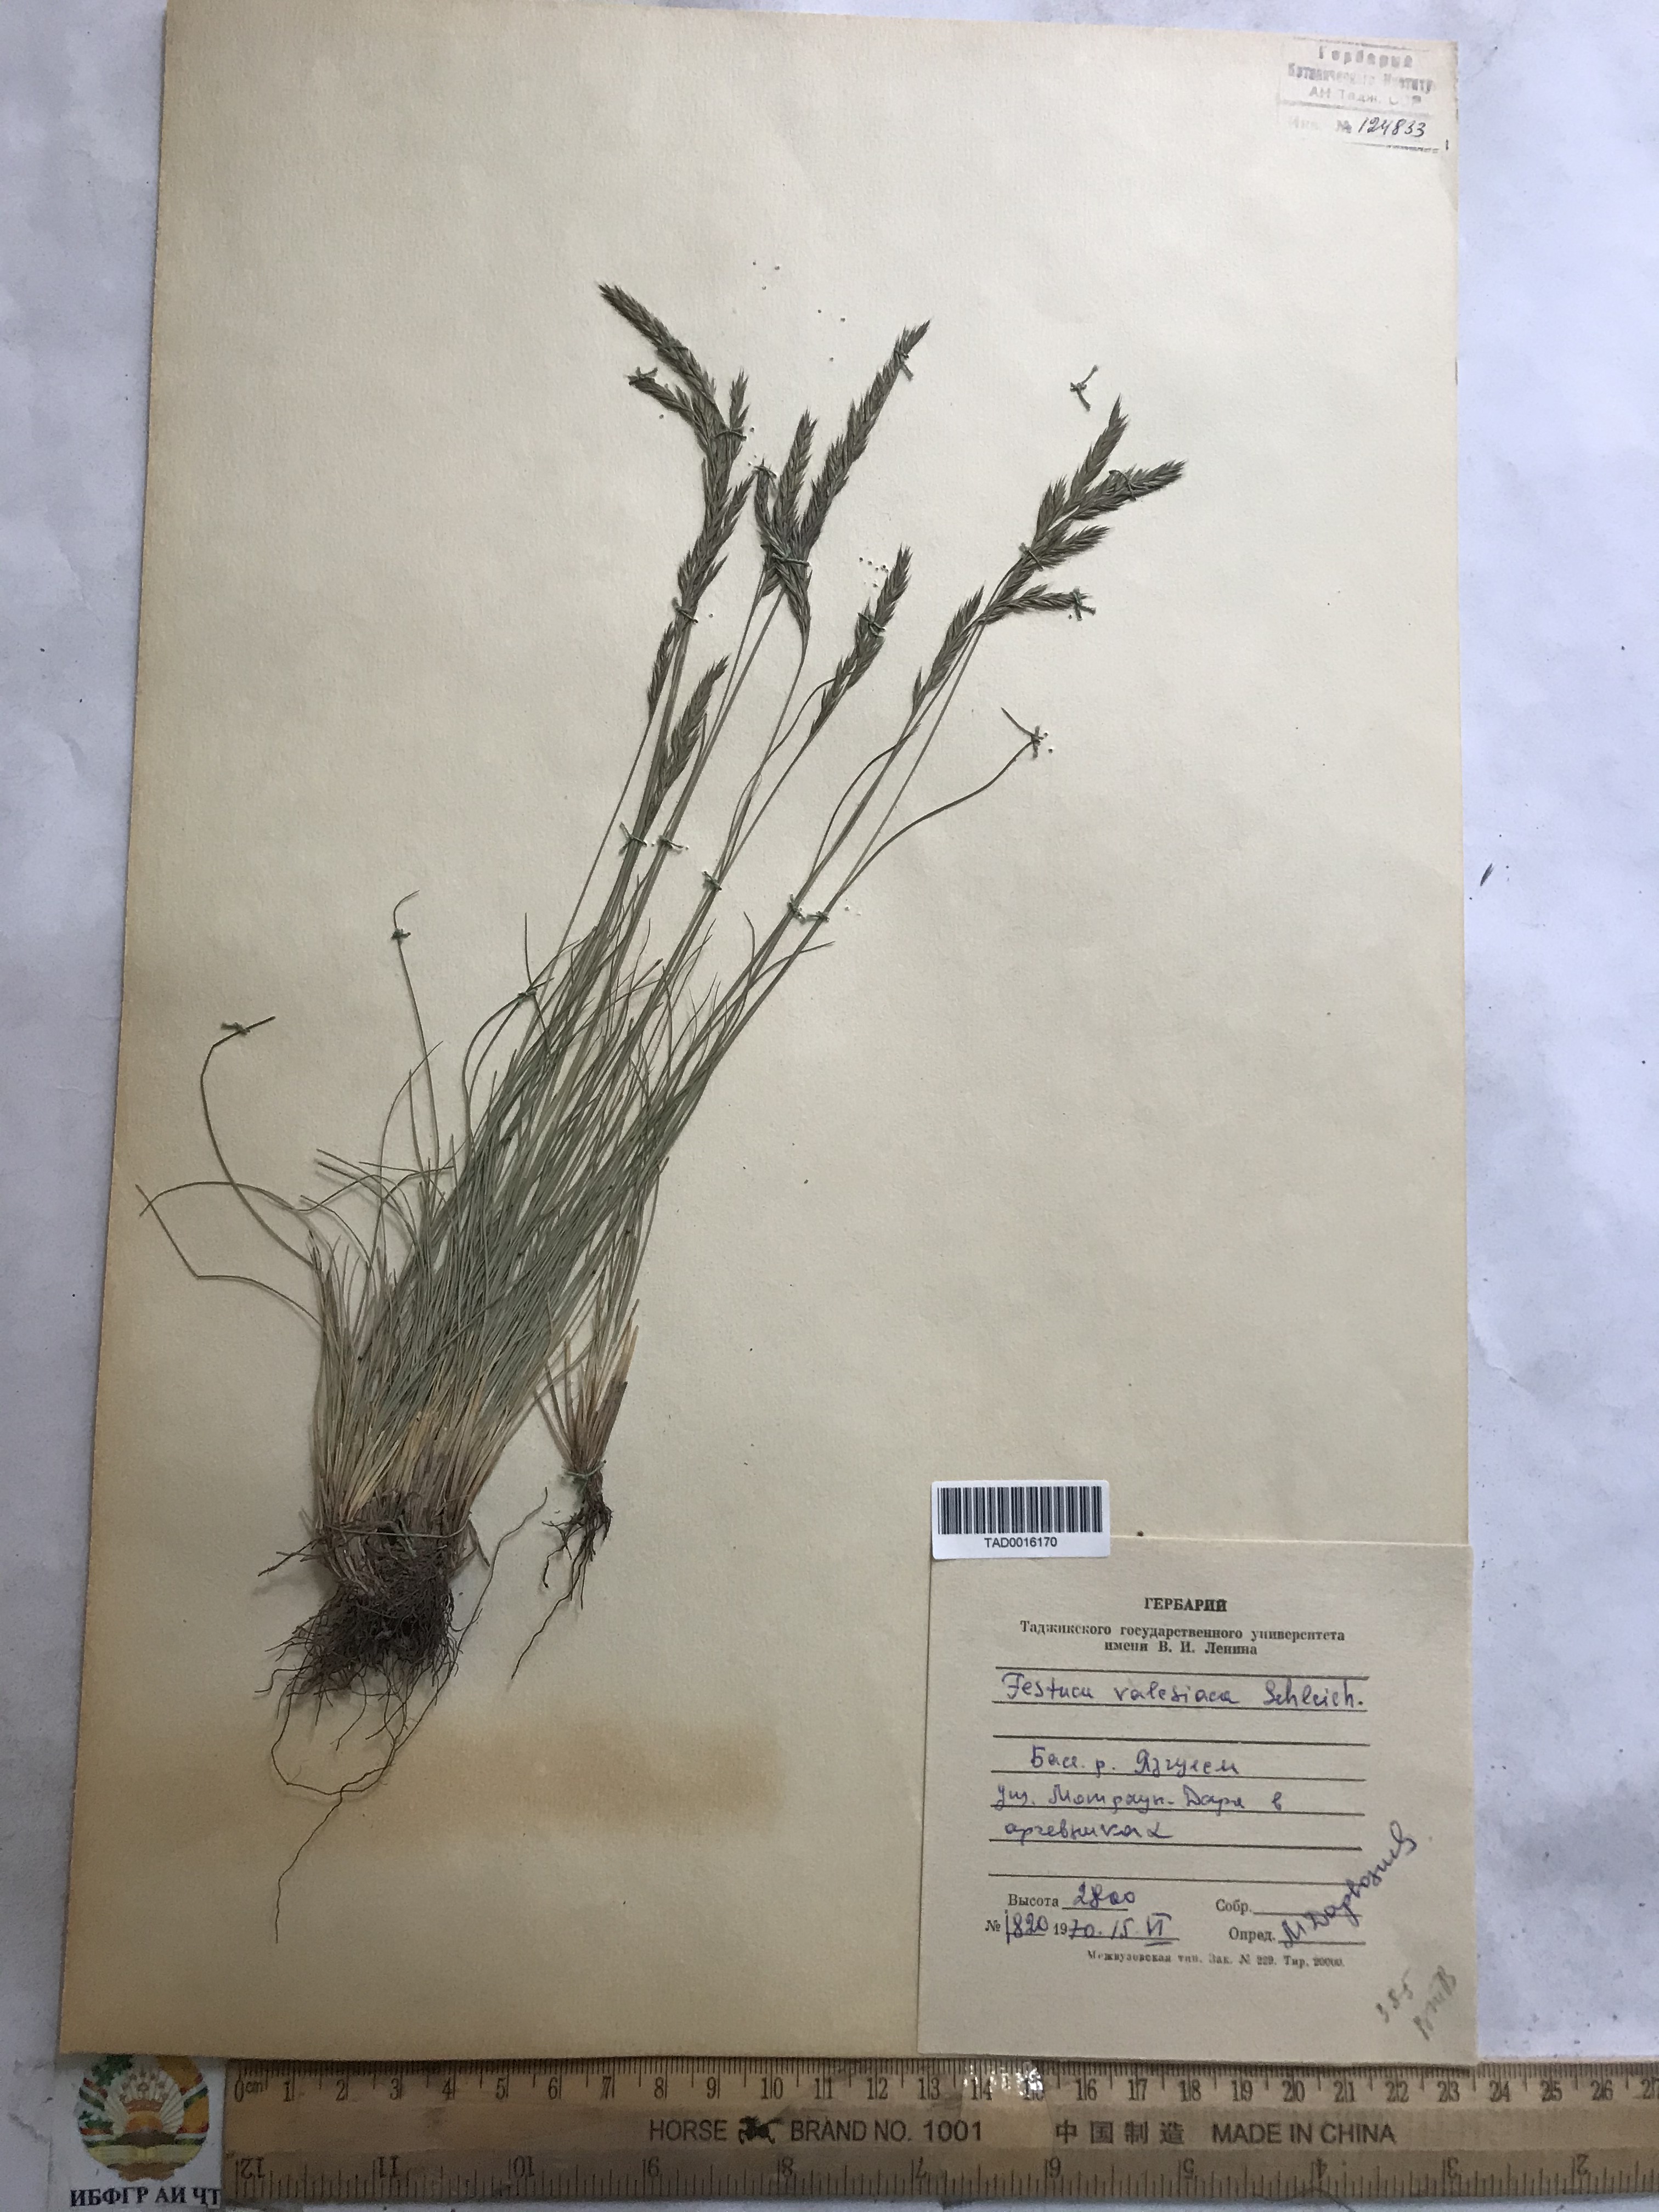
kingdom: Plantae
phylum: Tracheophyta
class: Liliopsida
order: Poales
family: Poaceae
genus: Festuca
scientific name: Festuca valesiaca
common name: Volga fescue
